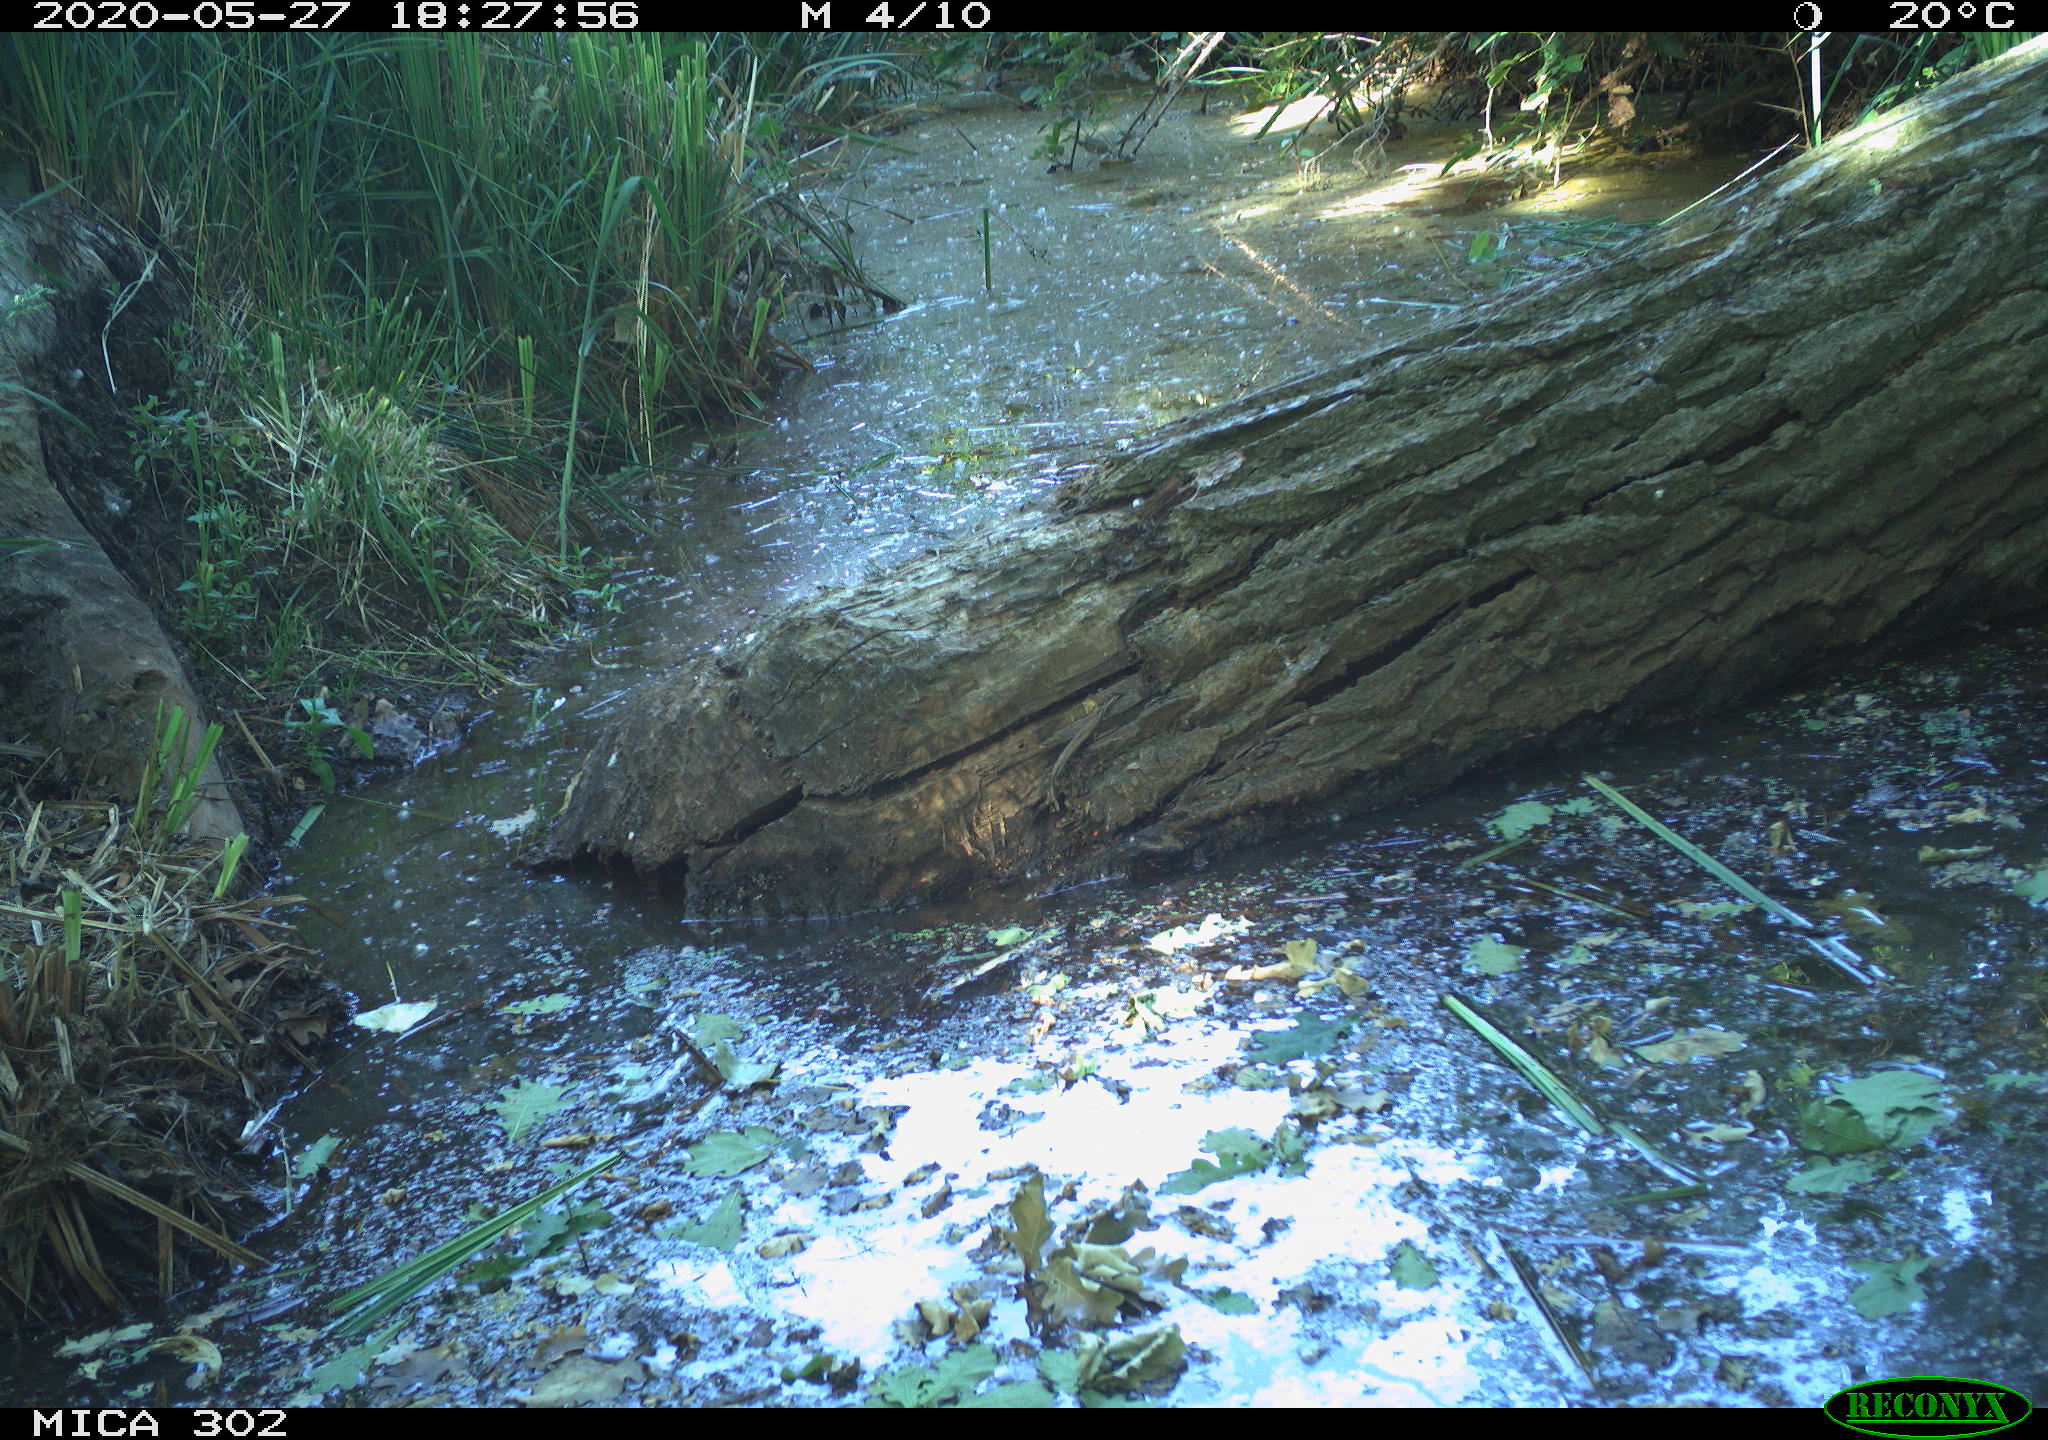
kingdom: Animalia
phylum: Chordata
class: Aves
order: Passeriformes
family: Turdidae
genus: Turdus
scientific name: Turdus philomelos
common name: Song thrush
